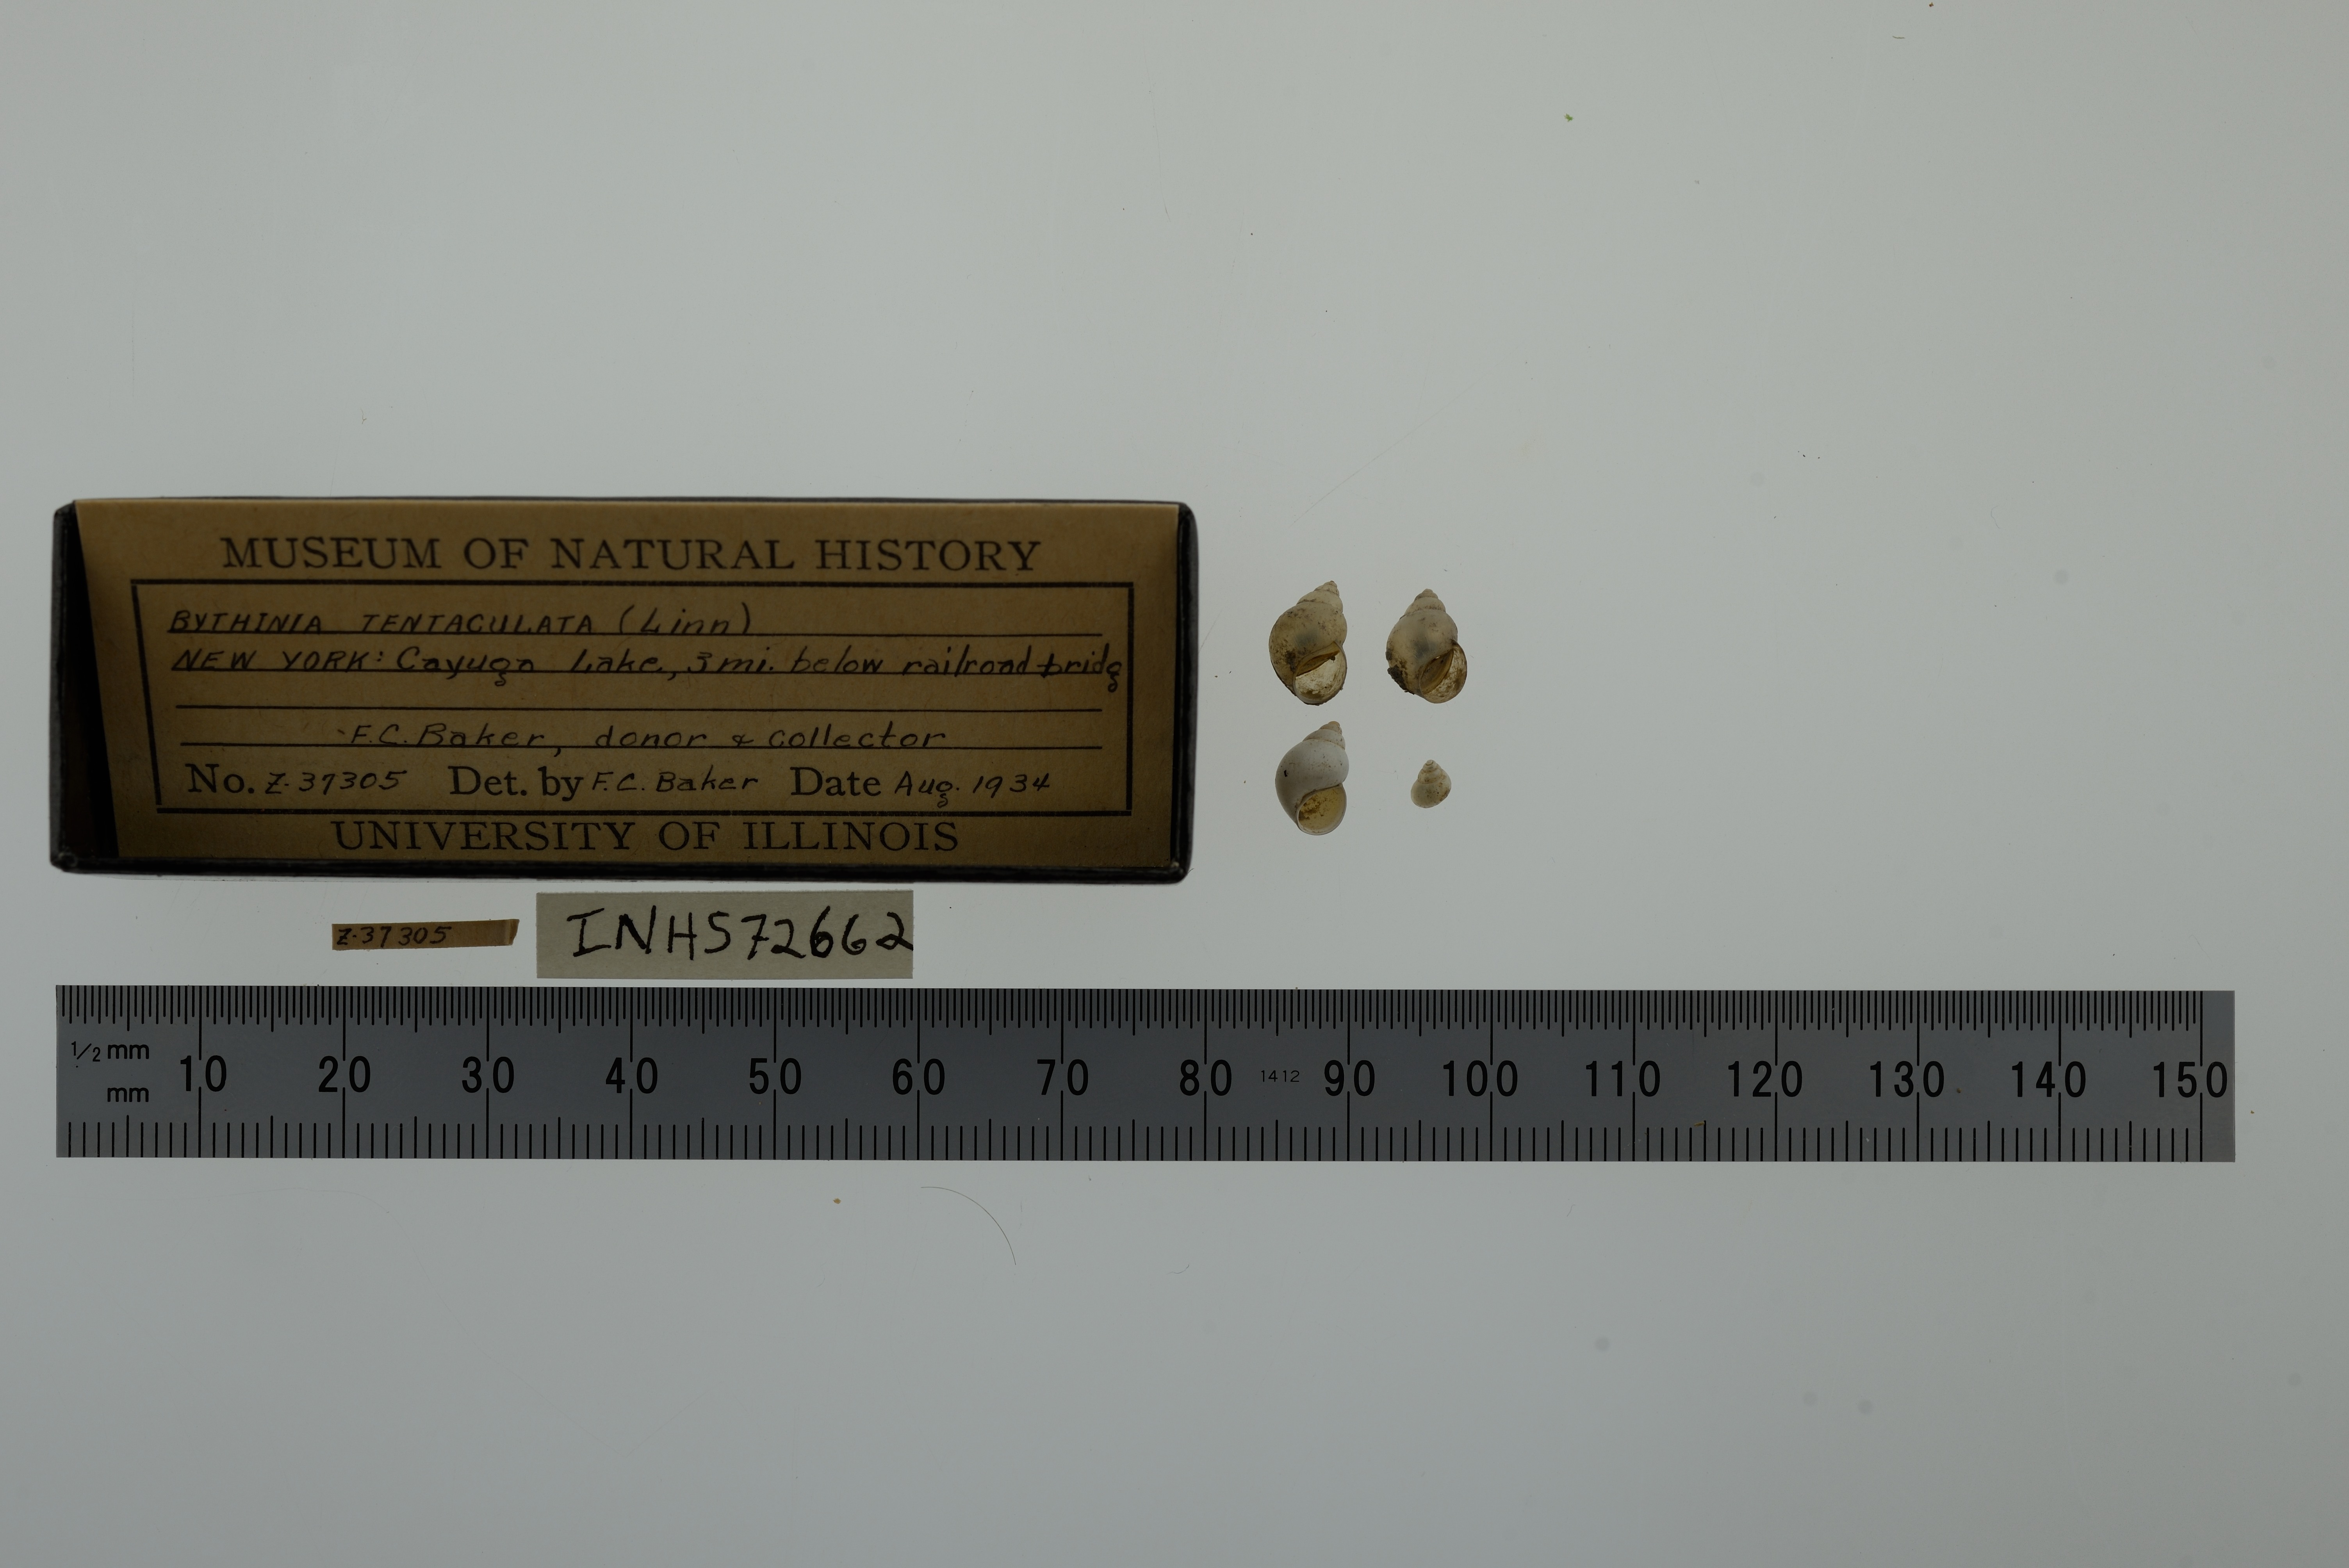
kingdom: Animalia
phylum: Mollusca
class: Gastropoda
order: Littorinimorpha
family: Bithyniidae
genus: Bithynia
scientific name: Bithynia tentaculata
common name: Common bithynia
